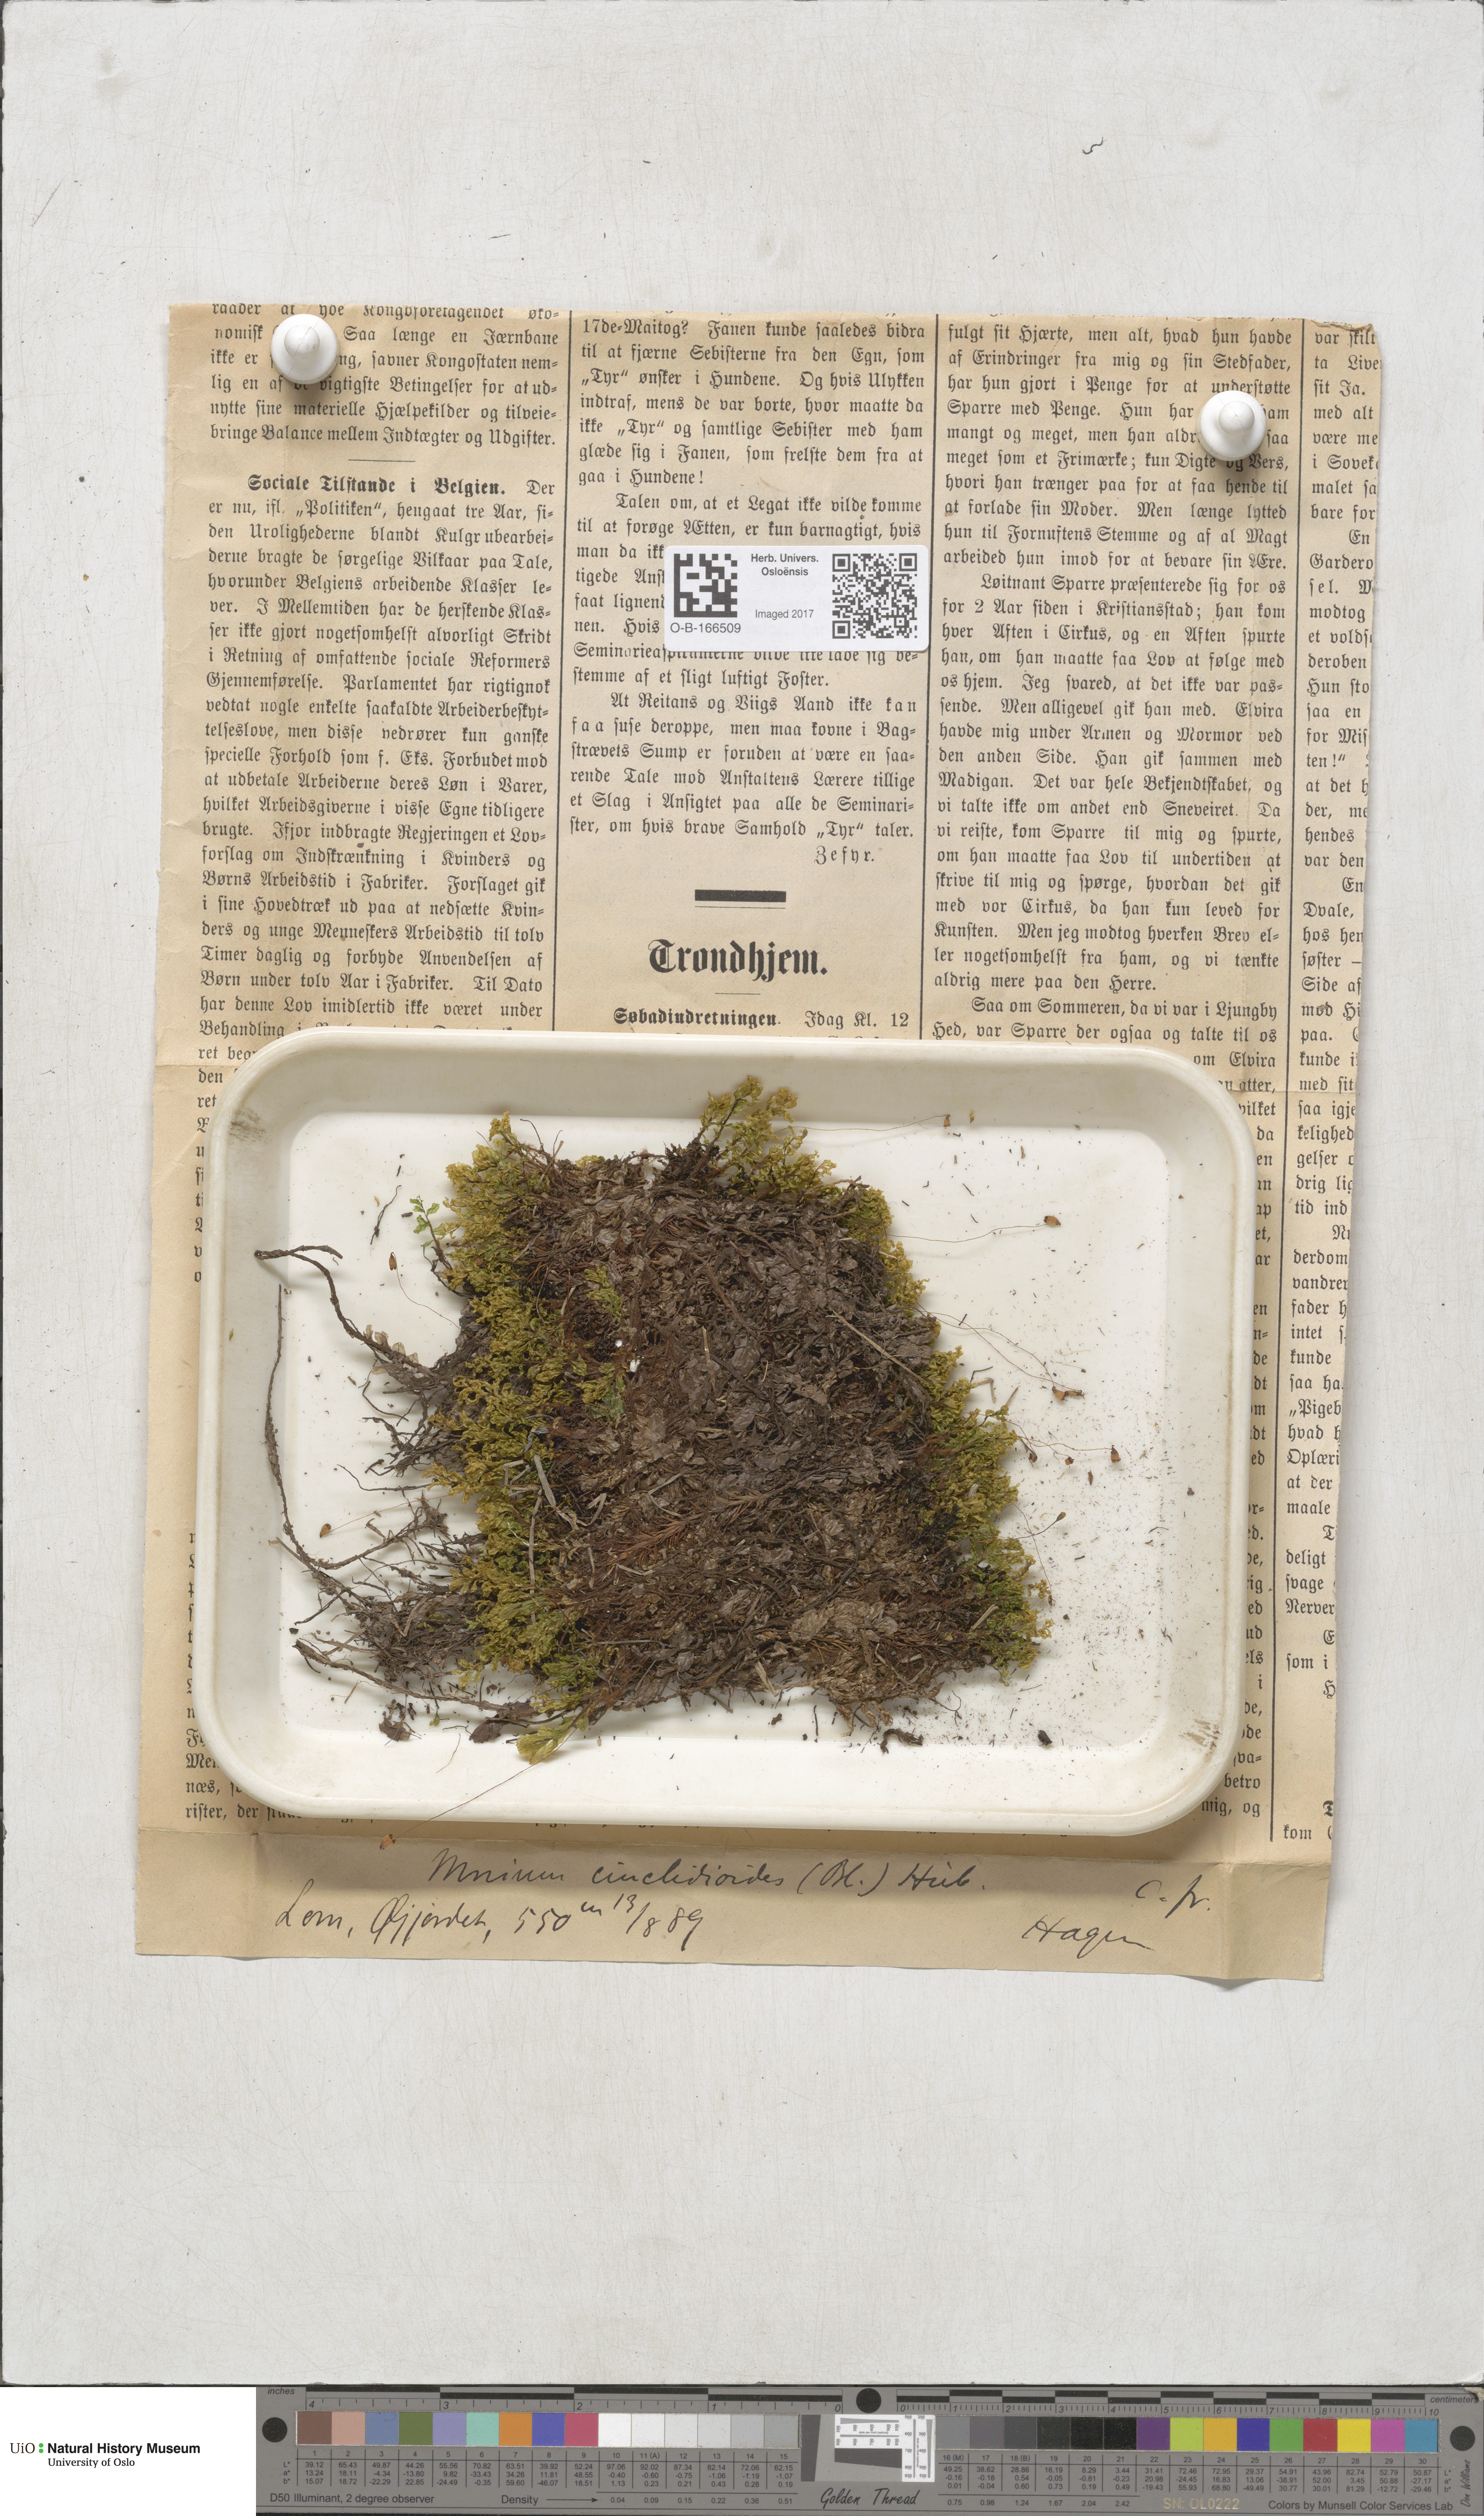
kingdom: Plantae
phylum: Bryophyta
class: Bryopsida
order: Bryales
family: Mniaceae
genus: Pseudobryum
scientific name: Pseudobryum cinclidioides
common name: River thyme moss
